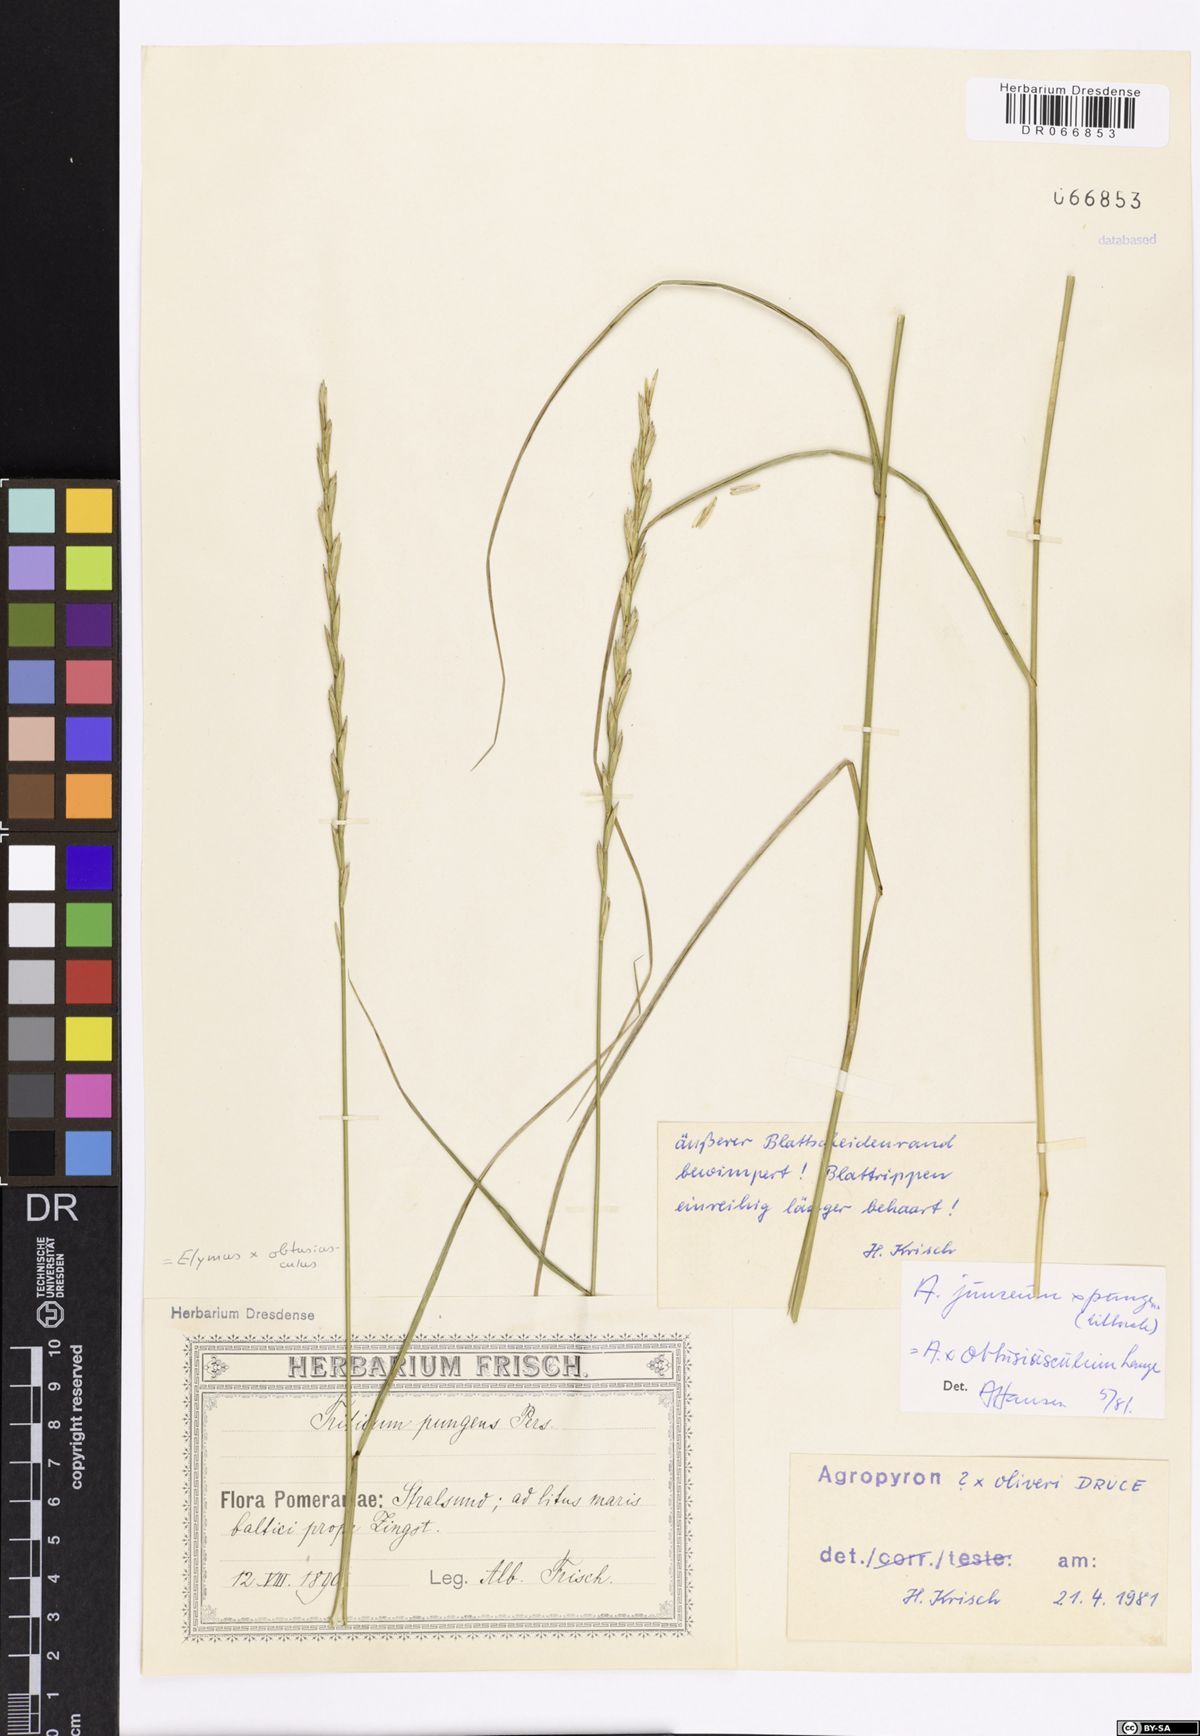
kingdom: Plantae
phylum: Tracheophyta
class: Liliopsida
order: Poales
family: Poaceae
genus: Thinoelymus
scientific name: Thinoelymus obtusiusculus
